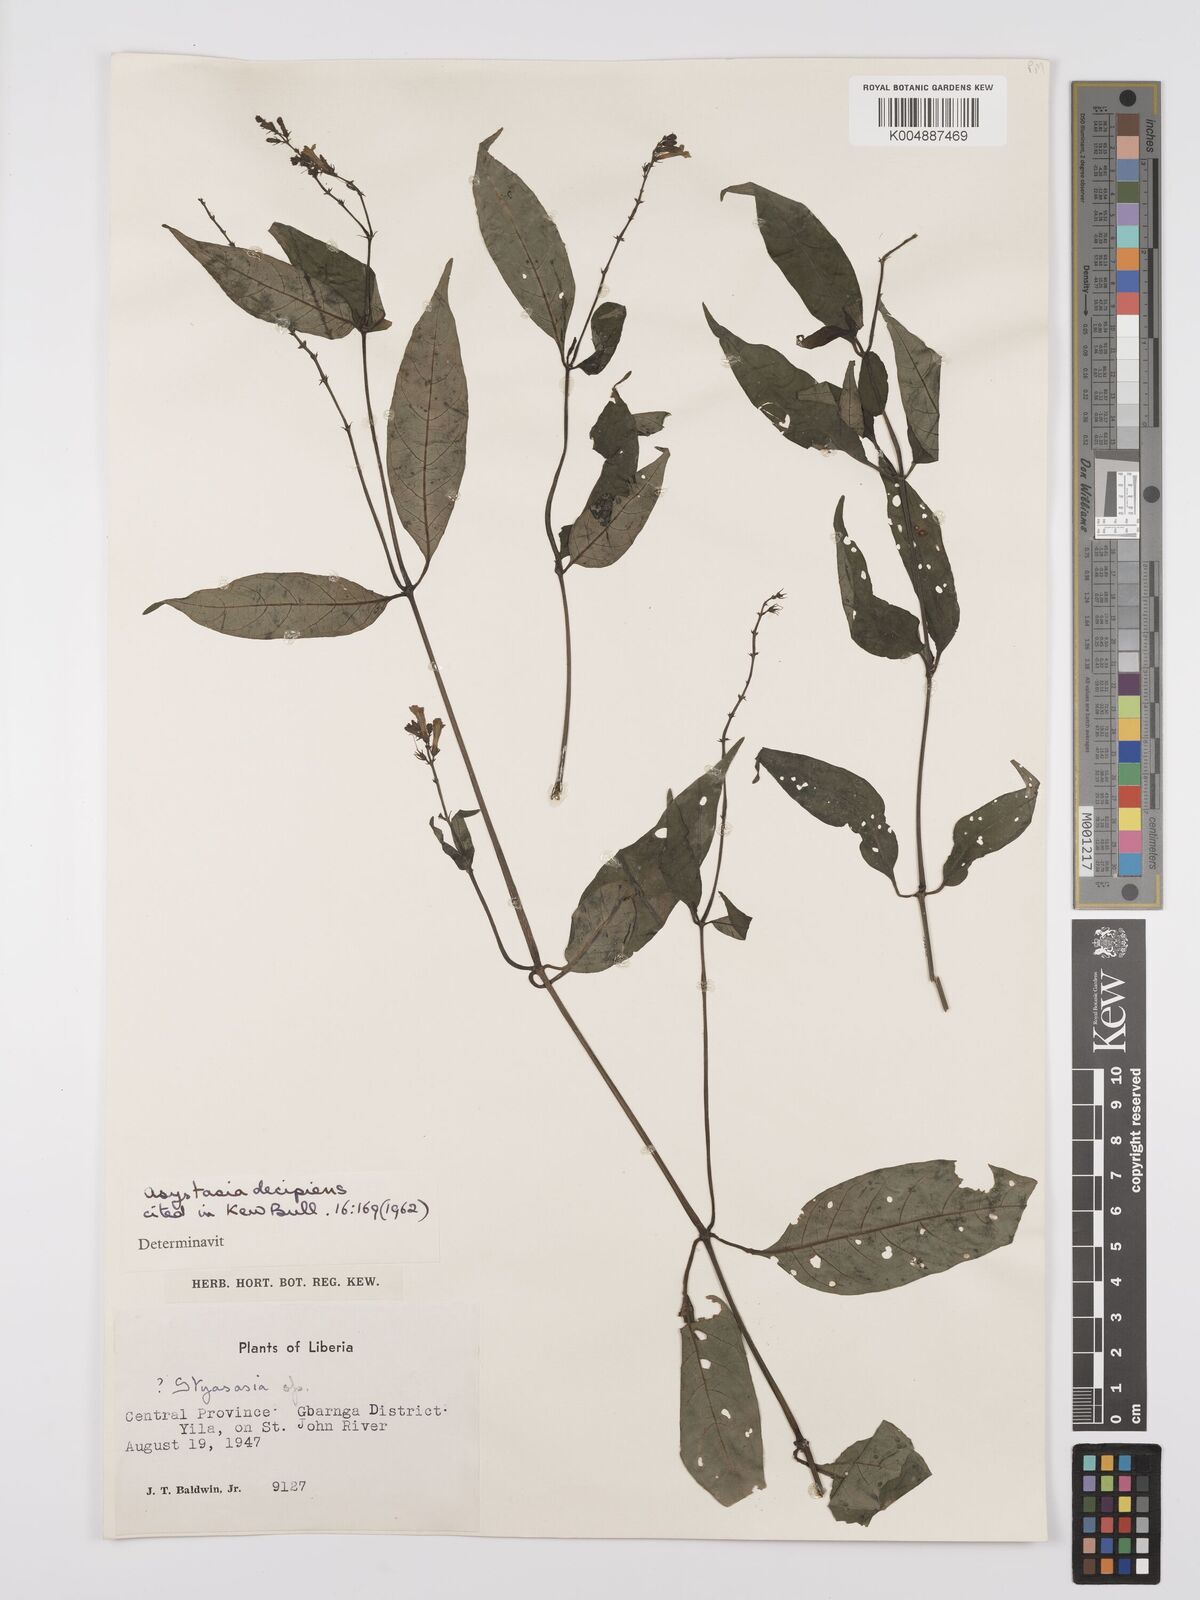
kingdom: Plantae
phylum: Tracheophyta
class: Magnoliopsida
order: Lamiales
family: Acanthaceae
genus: Asystasia
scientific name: Asystasia leptostachya
